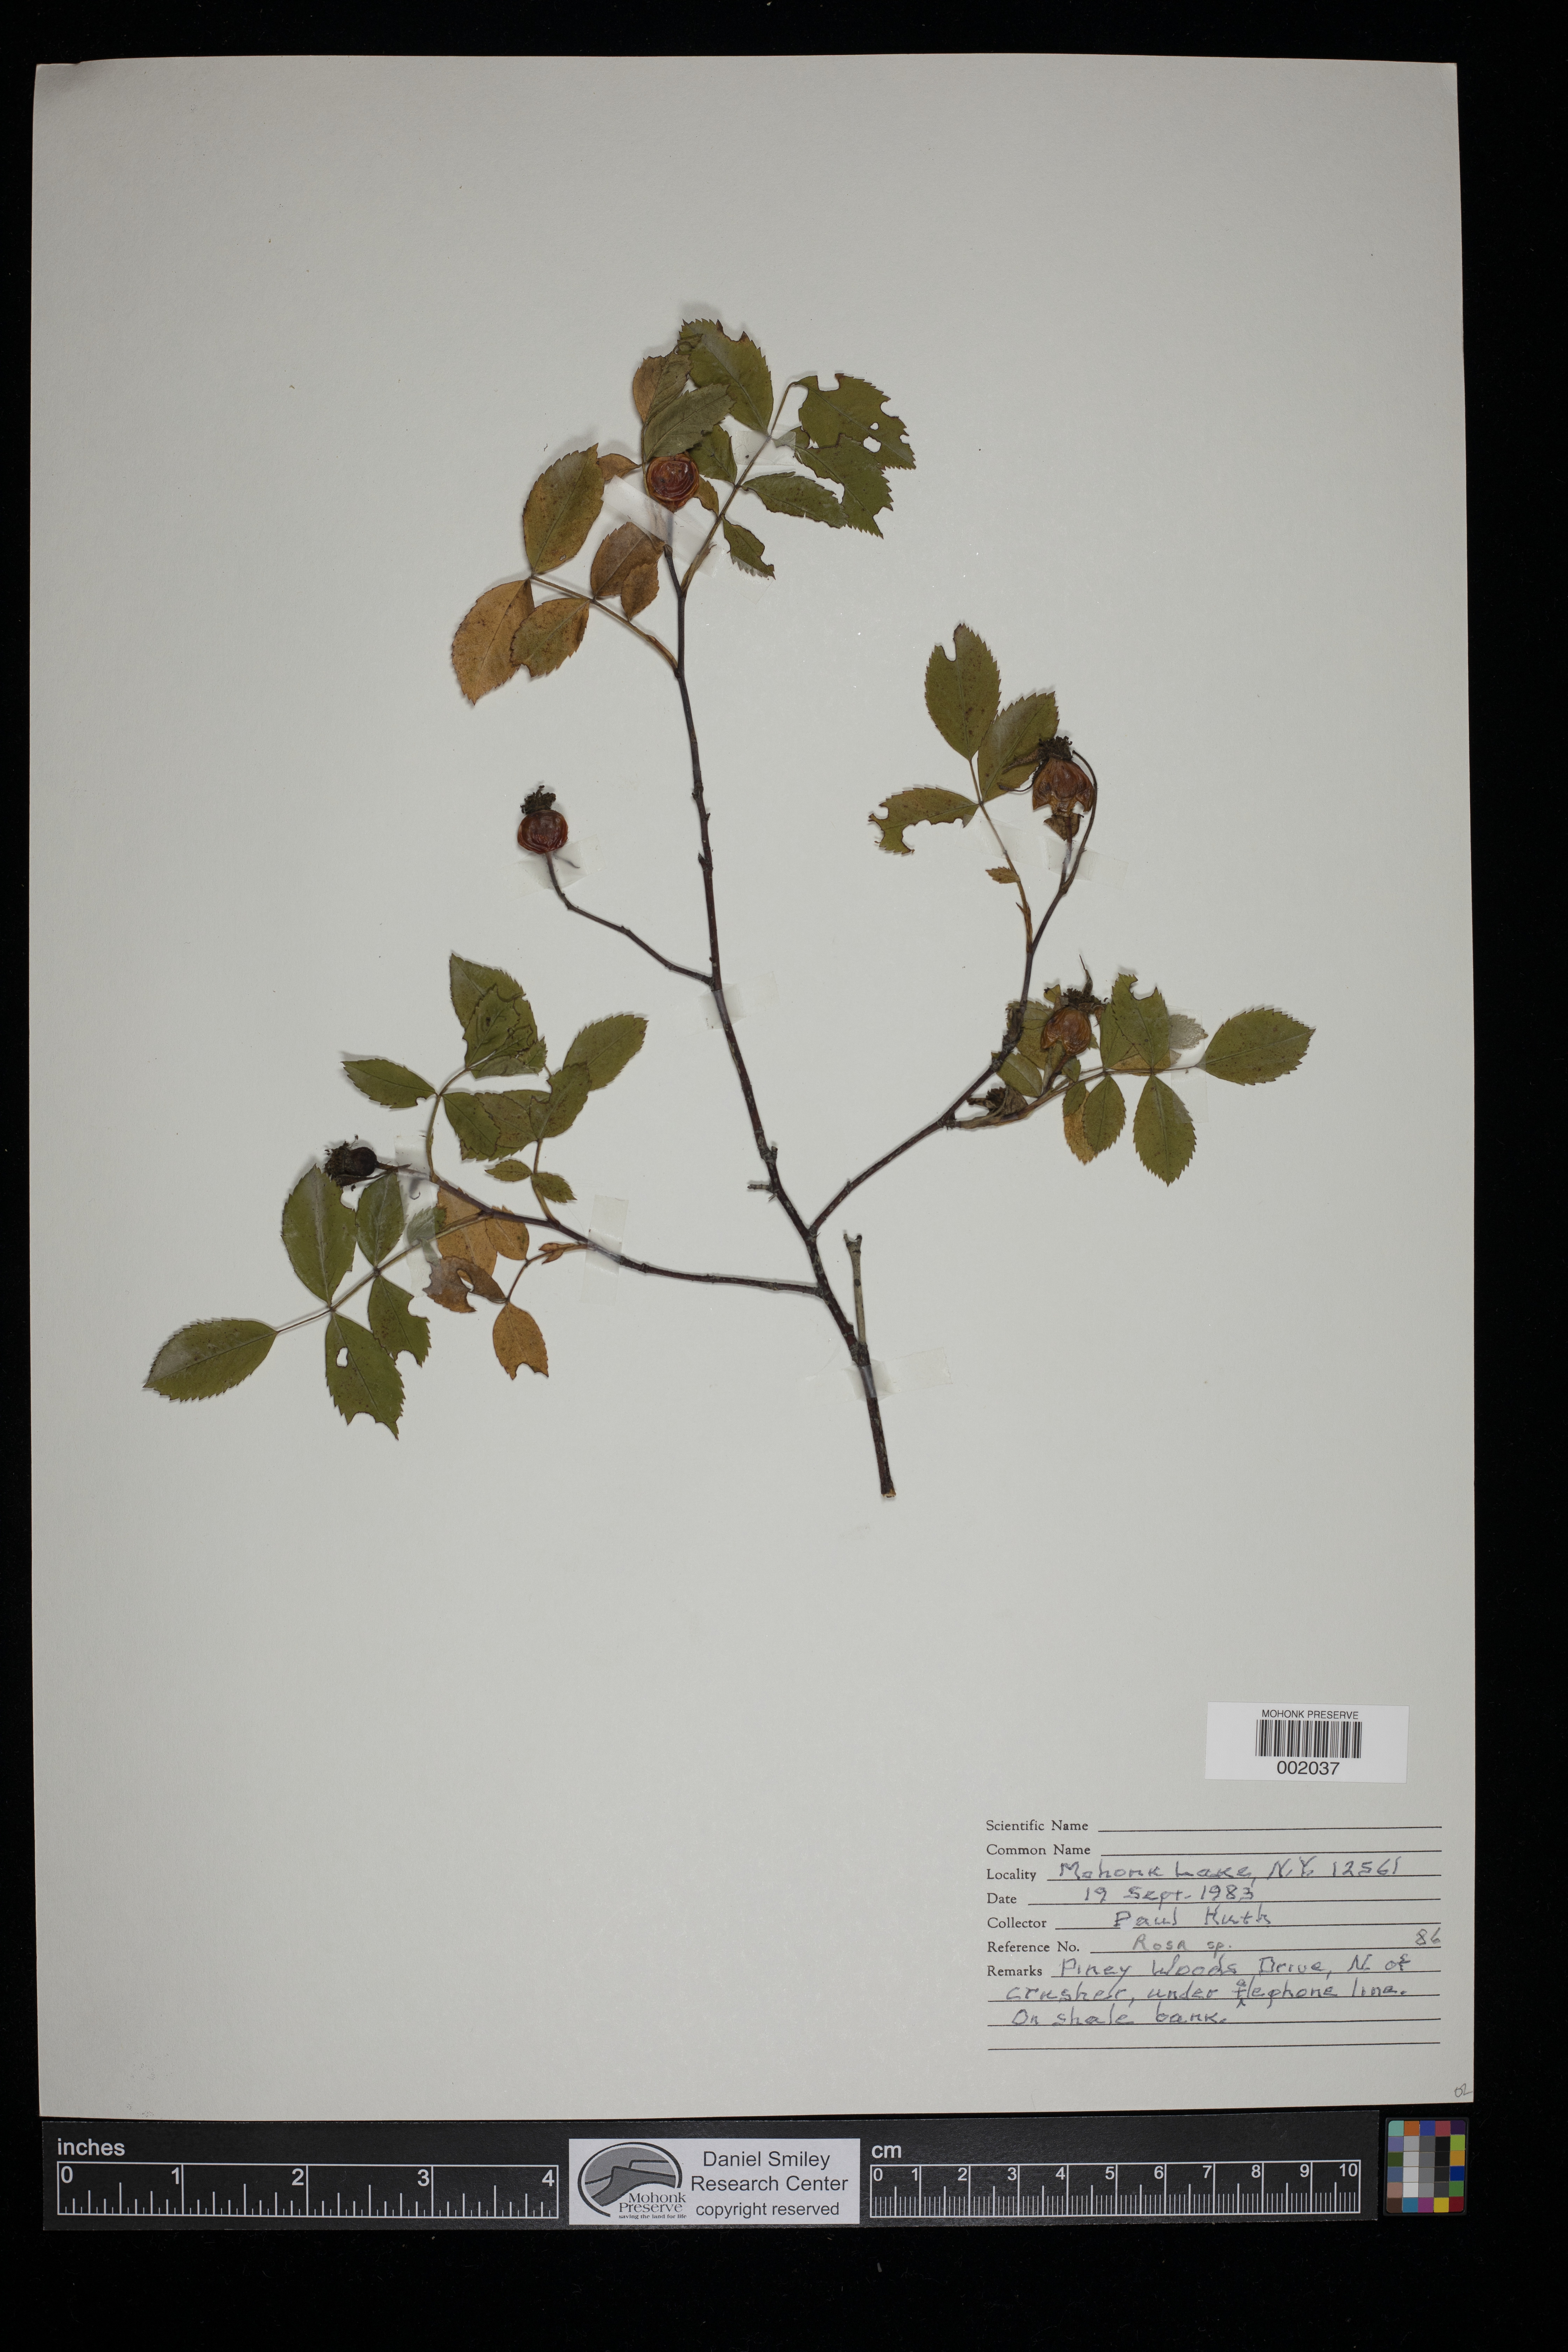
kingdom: Plantae
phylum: Tracheophyta
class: Magnoliopsida
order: Rosales
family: Rosaceae
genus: Rosa
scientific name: Rosa
